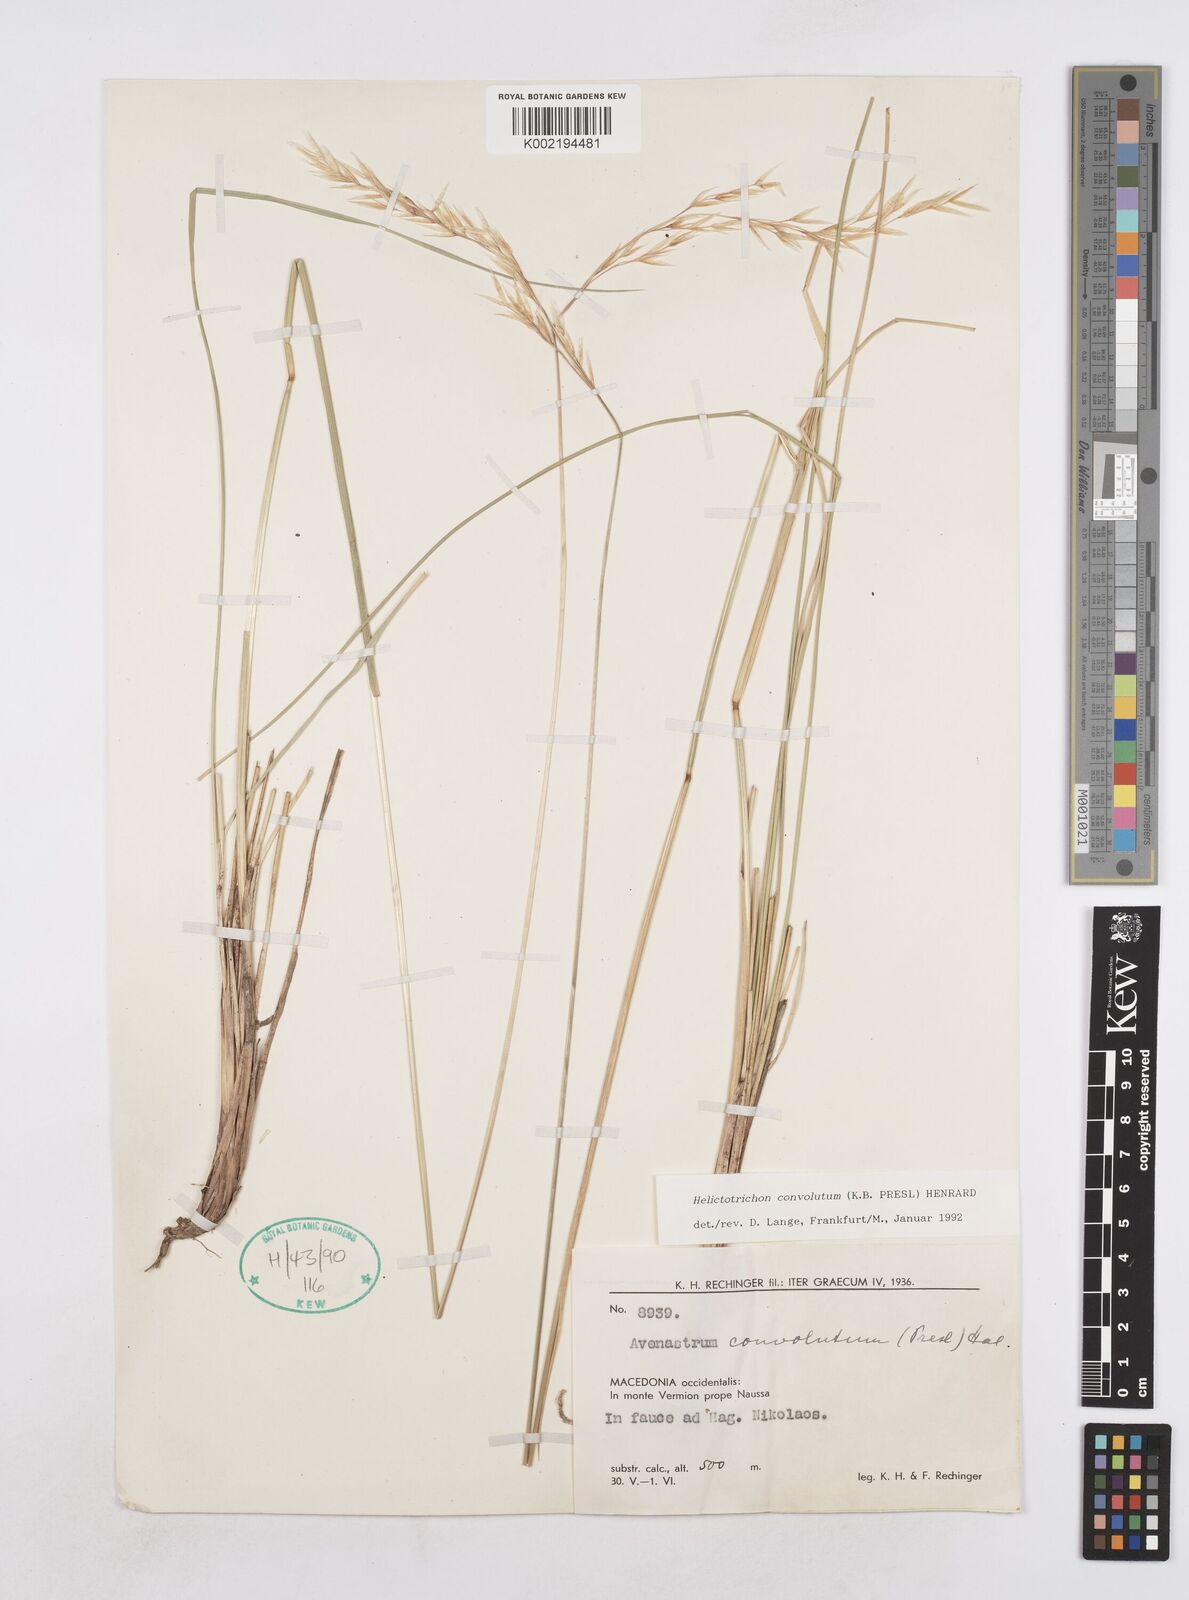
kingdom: Plantae
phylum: Tracheophyta
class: Liliopsida
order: Poales
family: Poaceae
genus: Helictotrichon
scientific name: Helictotrichon convolutum
